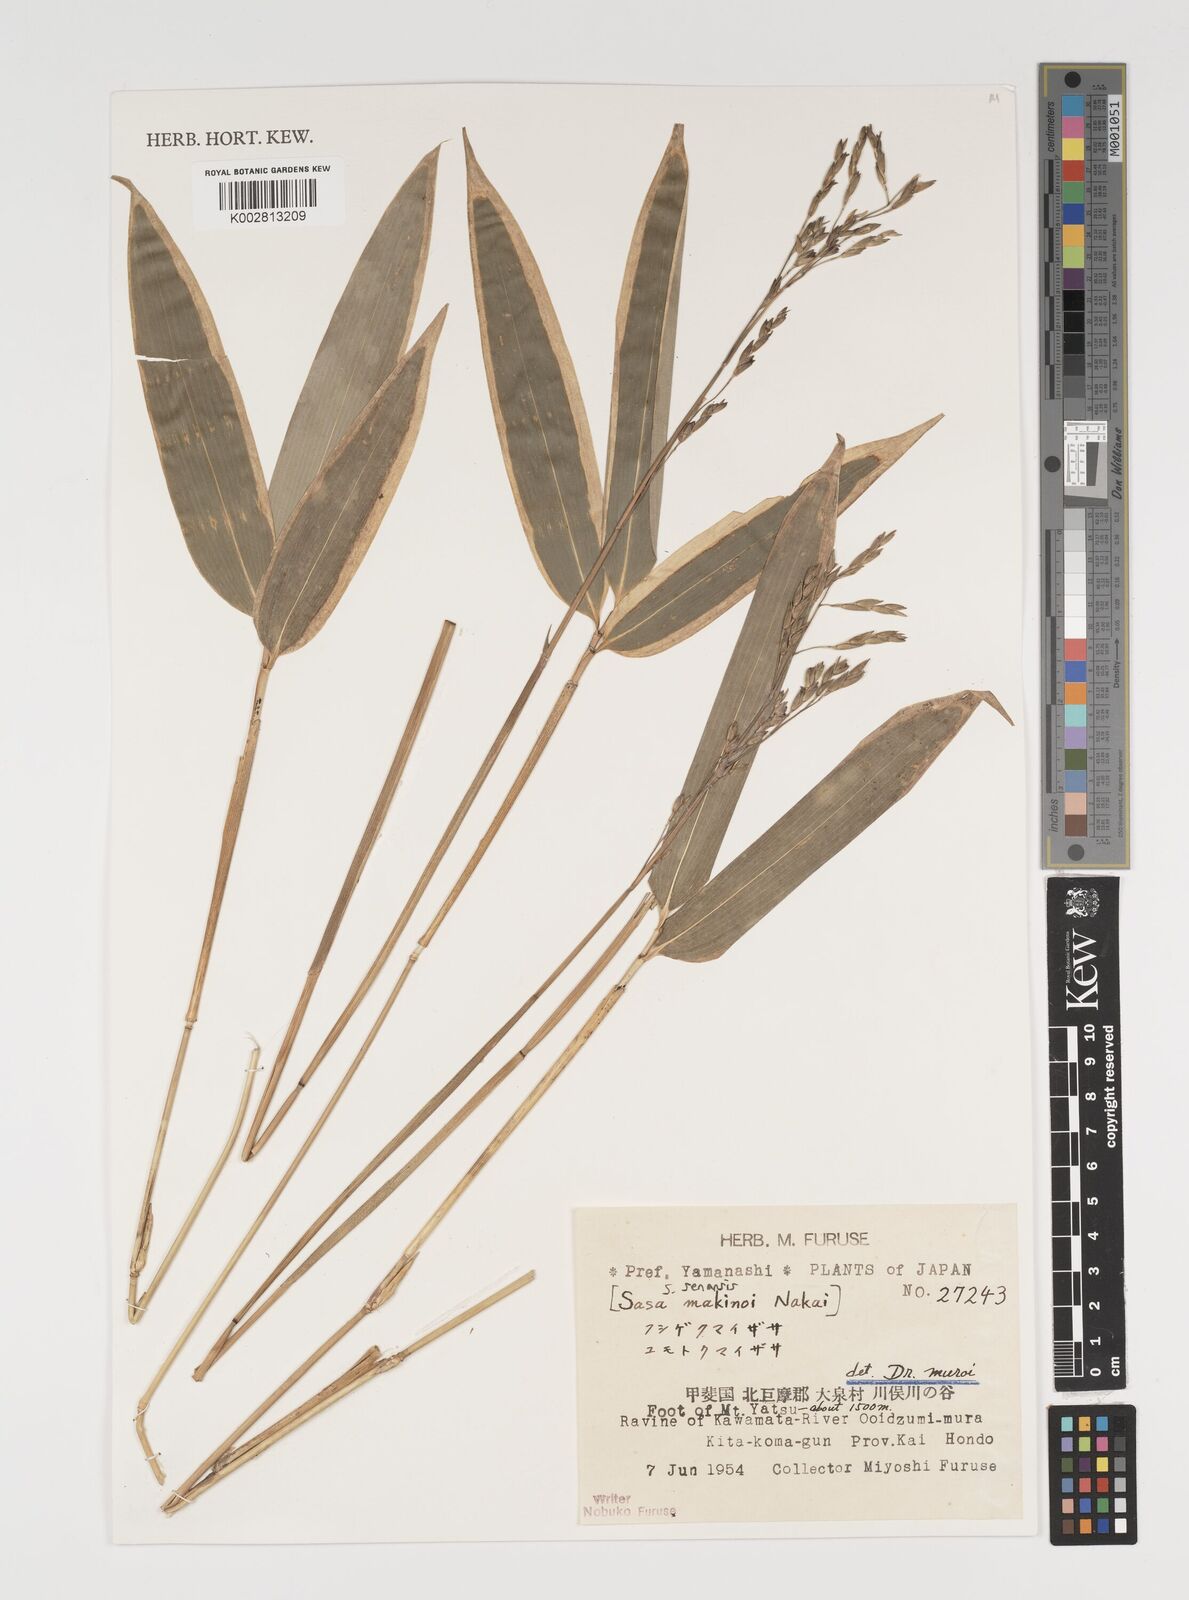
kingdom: Plantae
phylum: Tracheophyta
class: Liliopsida
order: Poales
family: Poaceae
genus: Sasa
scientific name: Sasa senanensis
